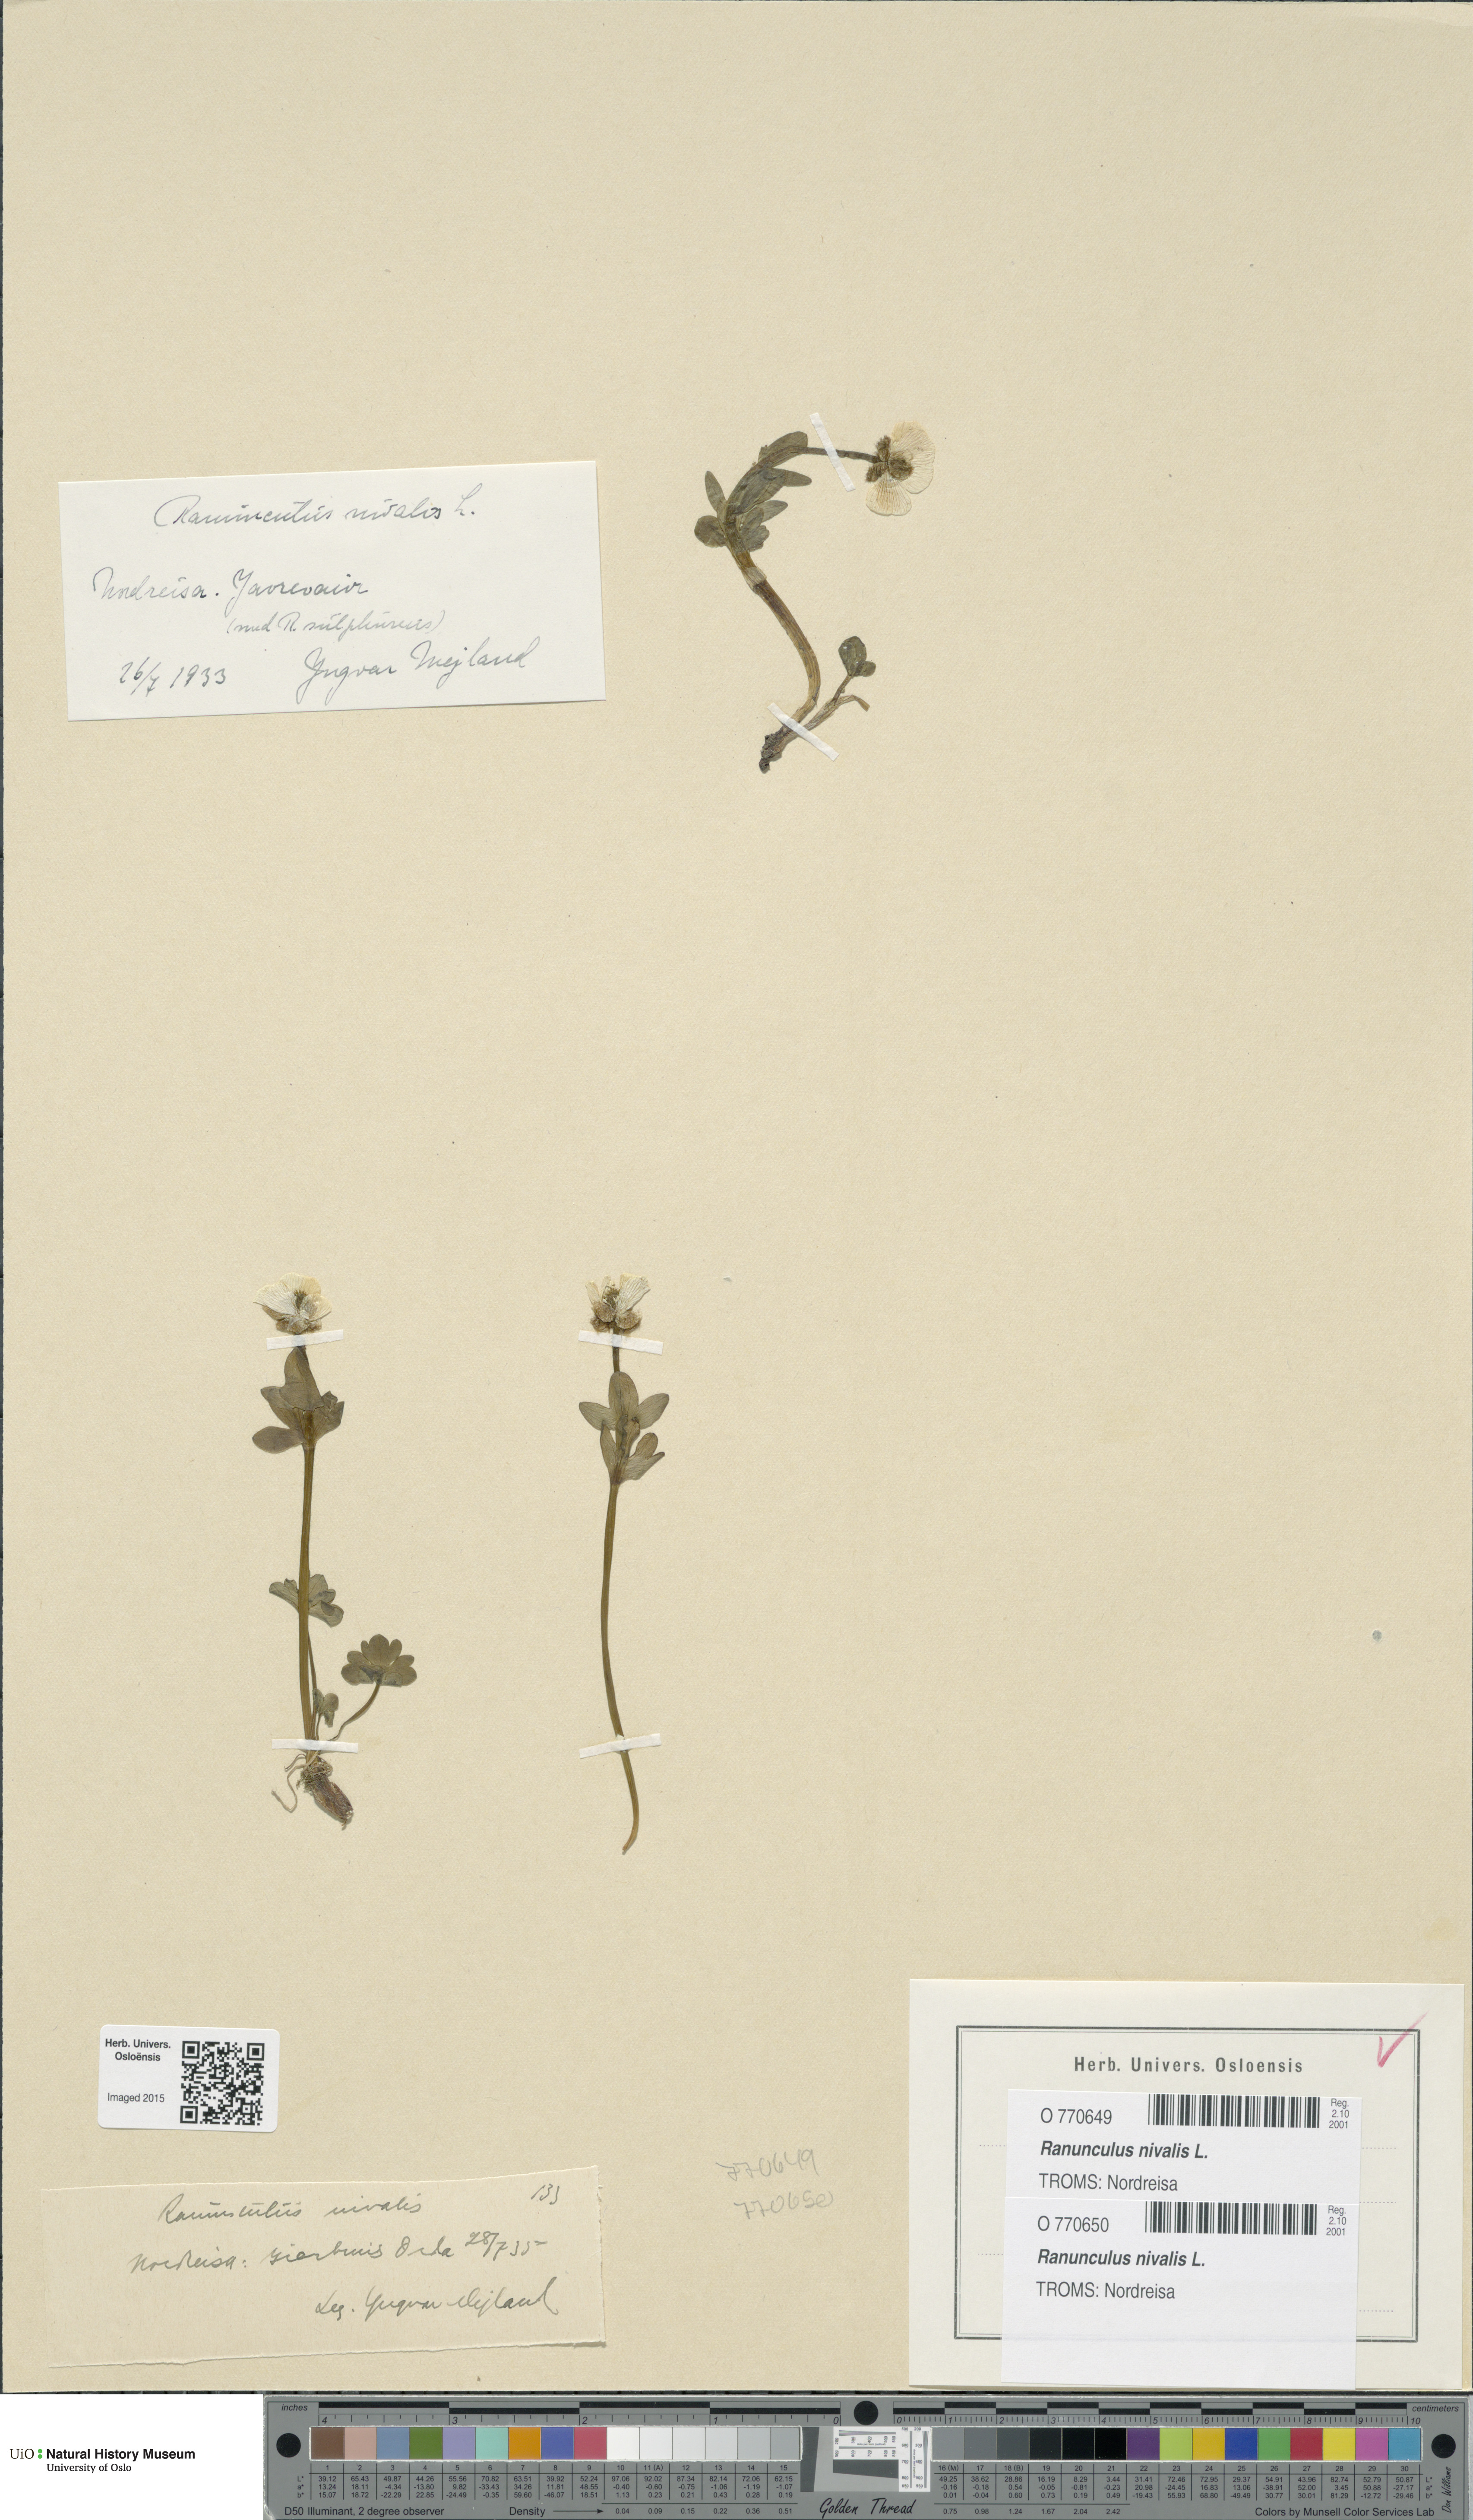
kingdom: Plantae
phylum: Tracheophyta
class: Magnoliopsida
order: Ranunculales
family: Ranunculaceae
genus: Ranunculus
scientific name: Ranunculus nivalis
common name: Snow buttercup
